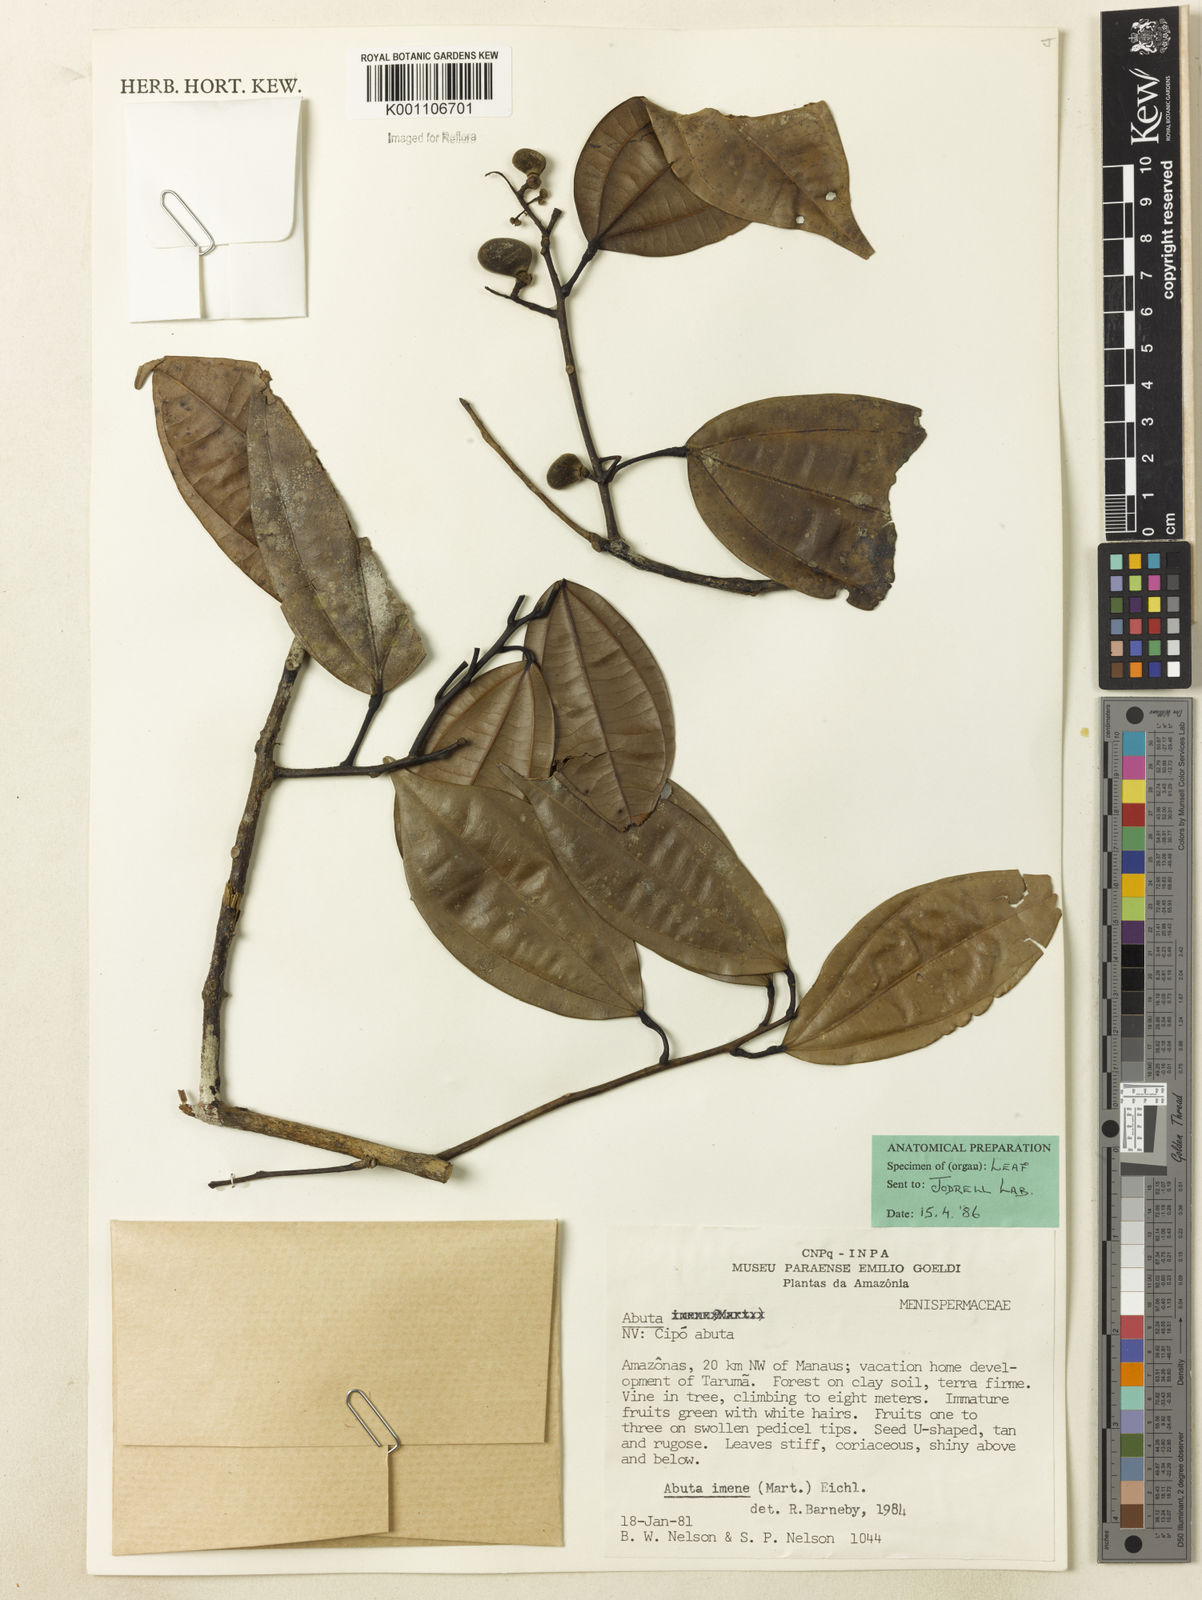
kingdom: Plantae
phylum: Tracheophyta
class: Magnoliopsida
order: Ranunculales
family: Menispermaceae
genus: Abuta
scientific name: Abuta imene
